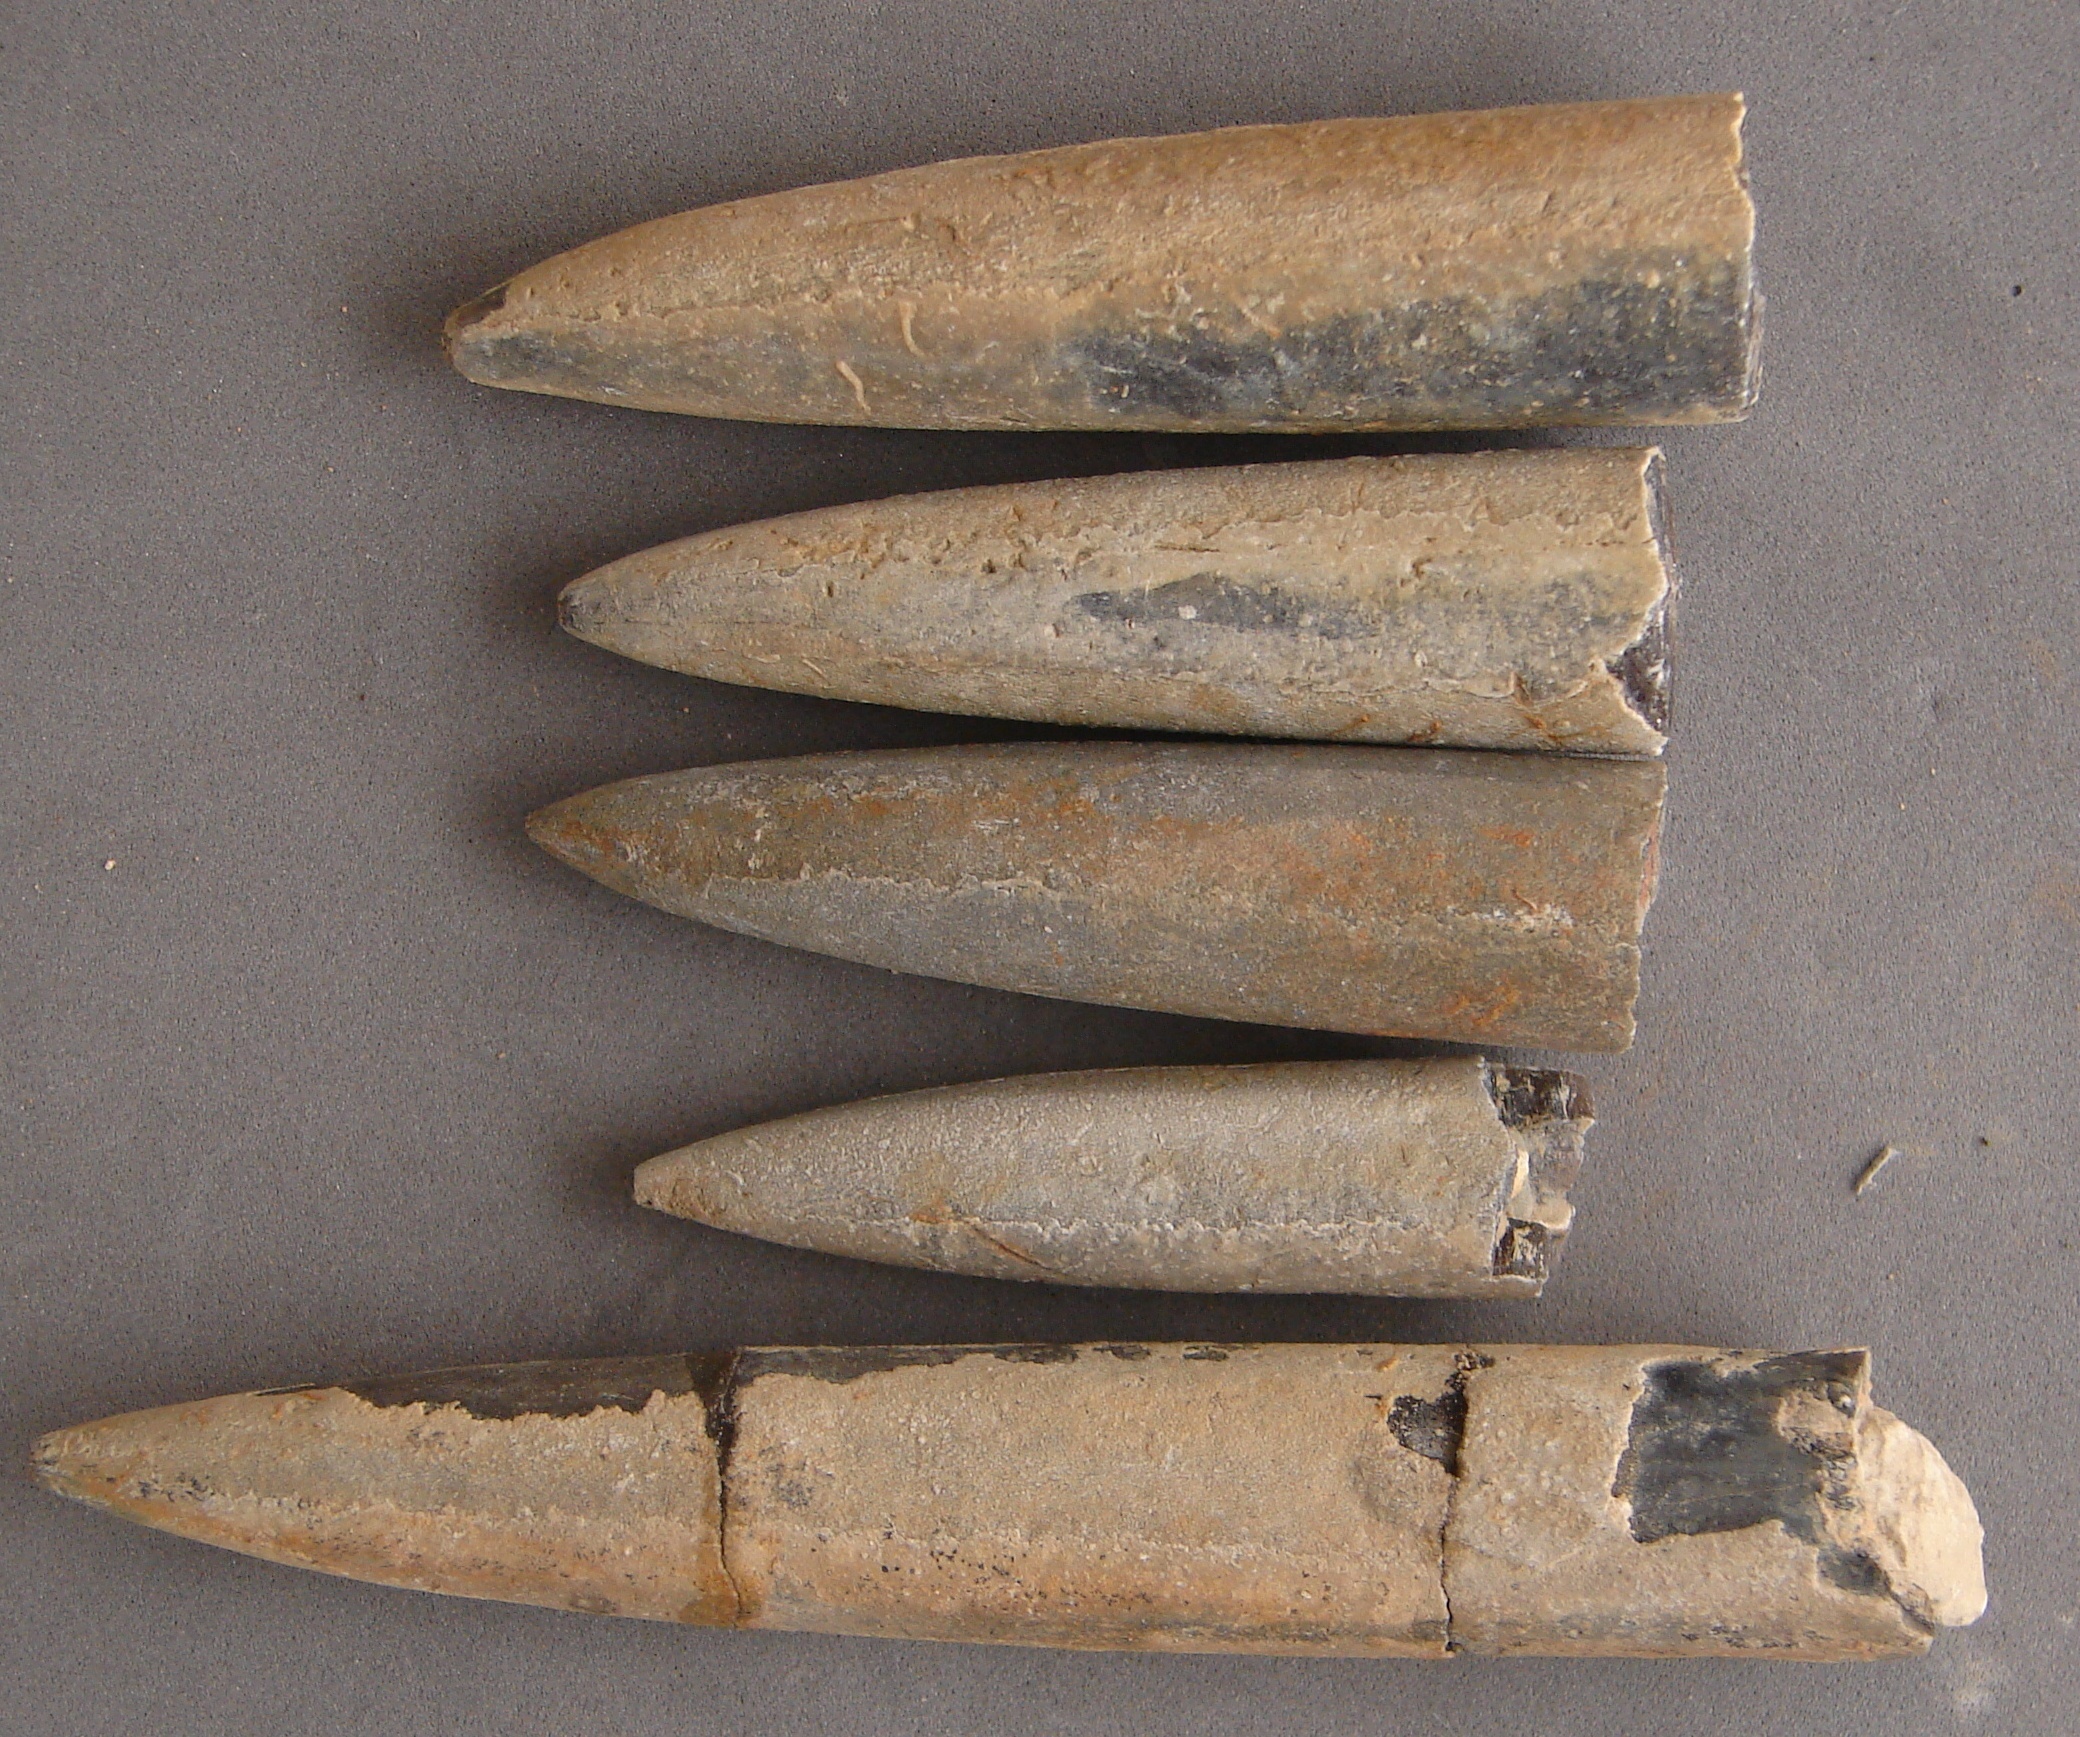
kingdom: Animalia
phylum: Mollusca
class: Cephalopoda
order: Belemnitida
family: Passaloteuthidae
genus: Passaloteuthis
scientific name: Passaloteuthis
